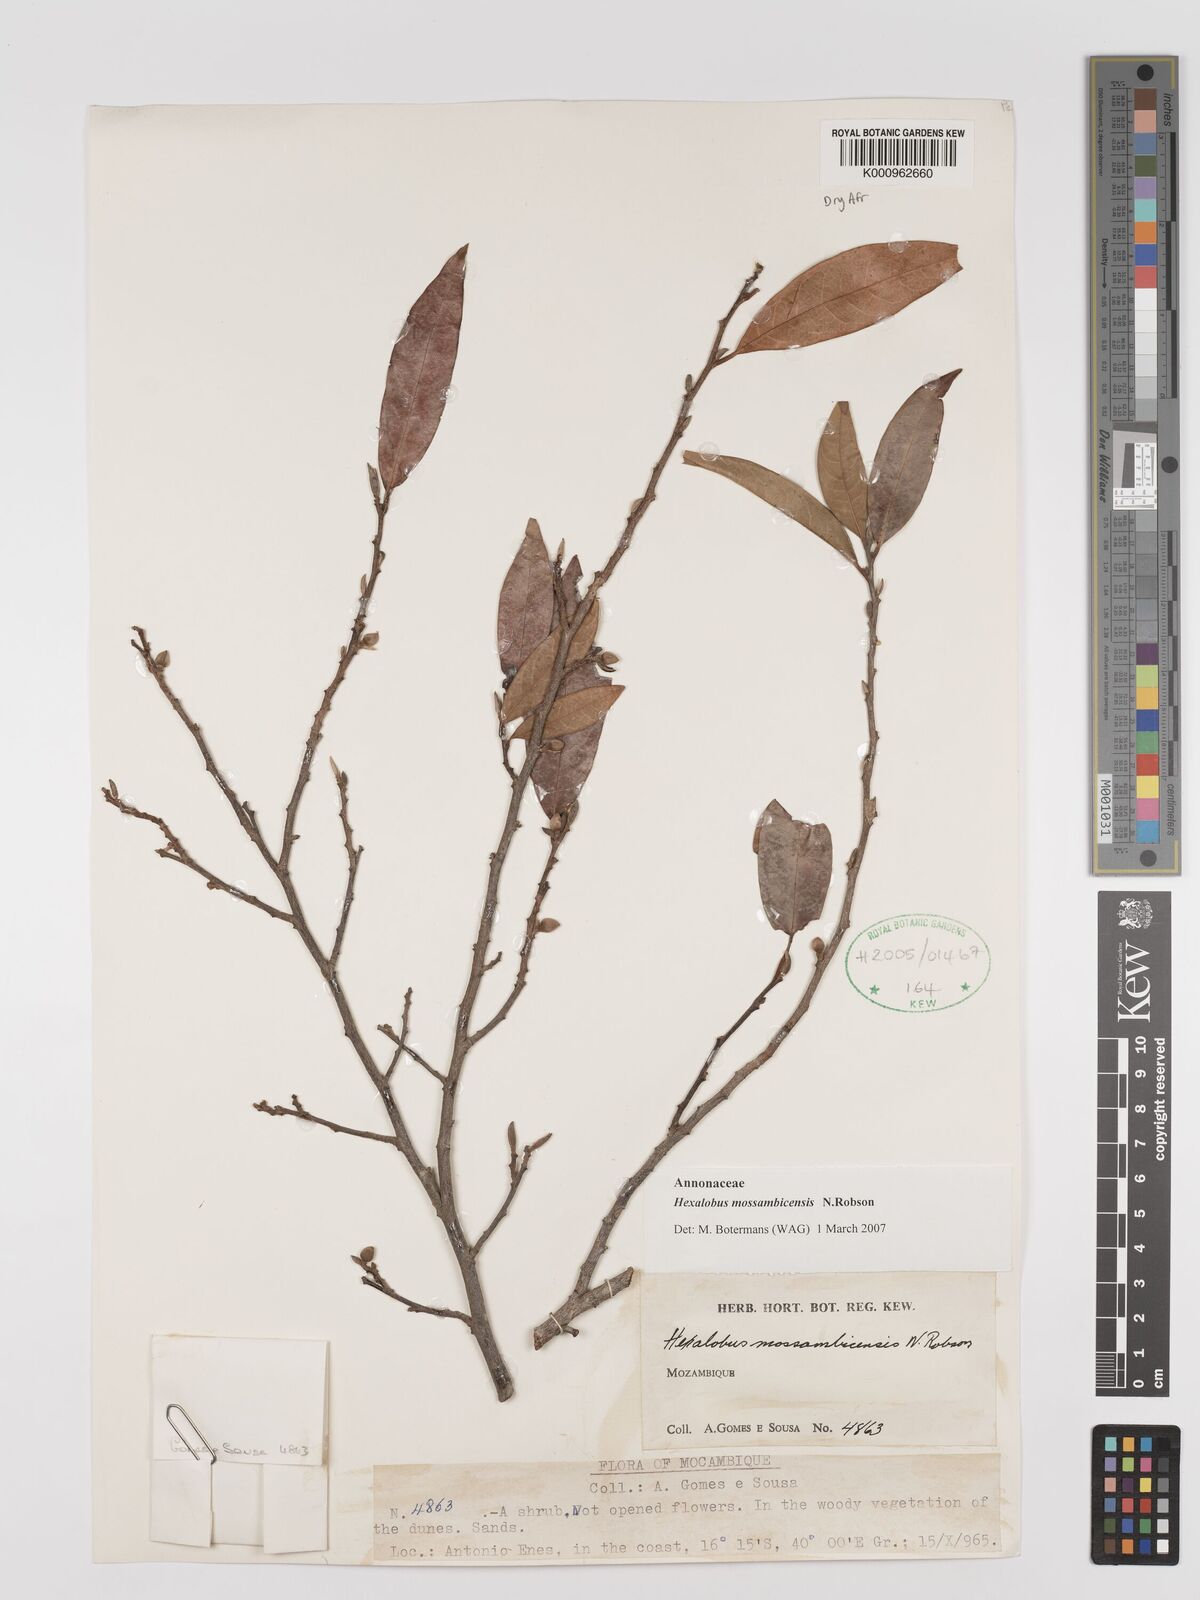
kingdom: Plantae
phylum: Tracheophyta
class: Magnoliopsida
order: Magnoliales
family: Annonaceae
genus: Hexalobus
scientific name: Hexalobus mossambicensis
